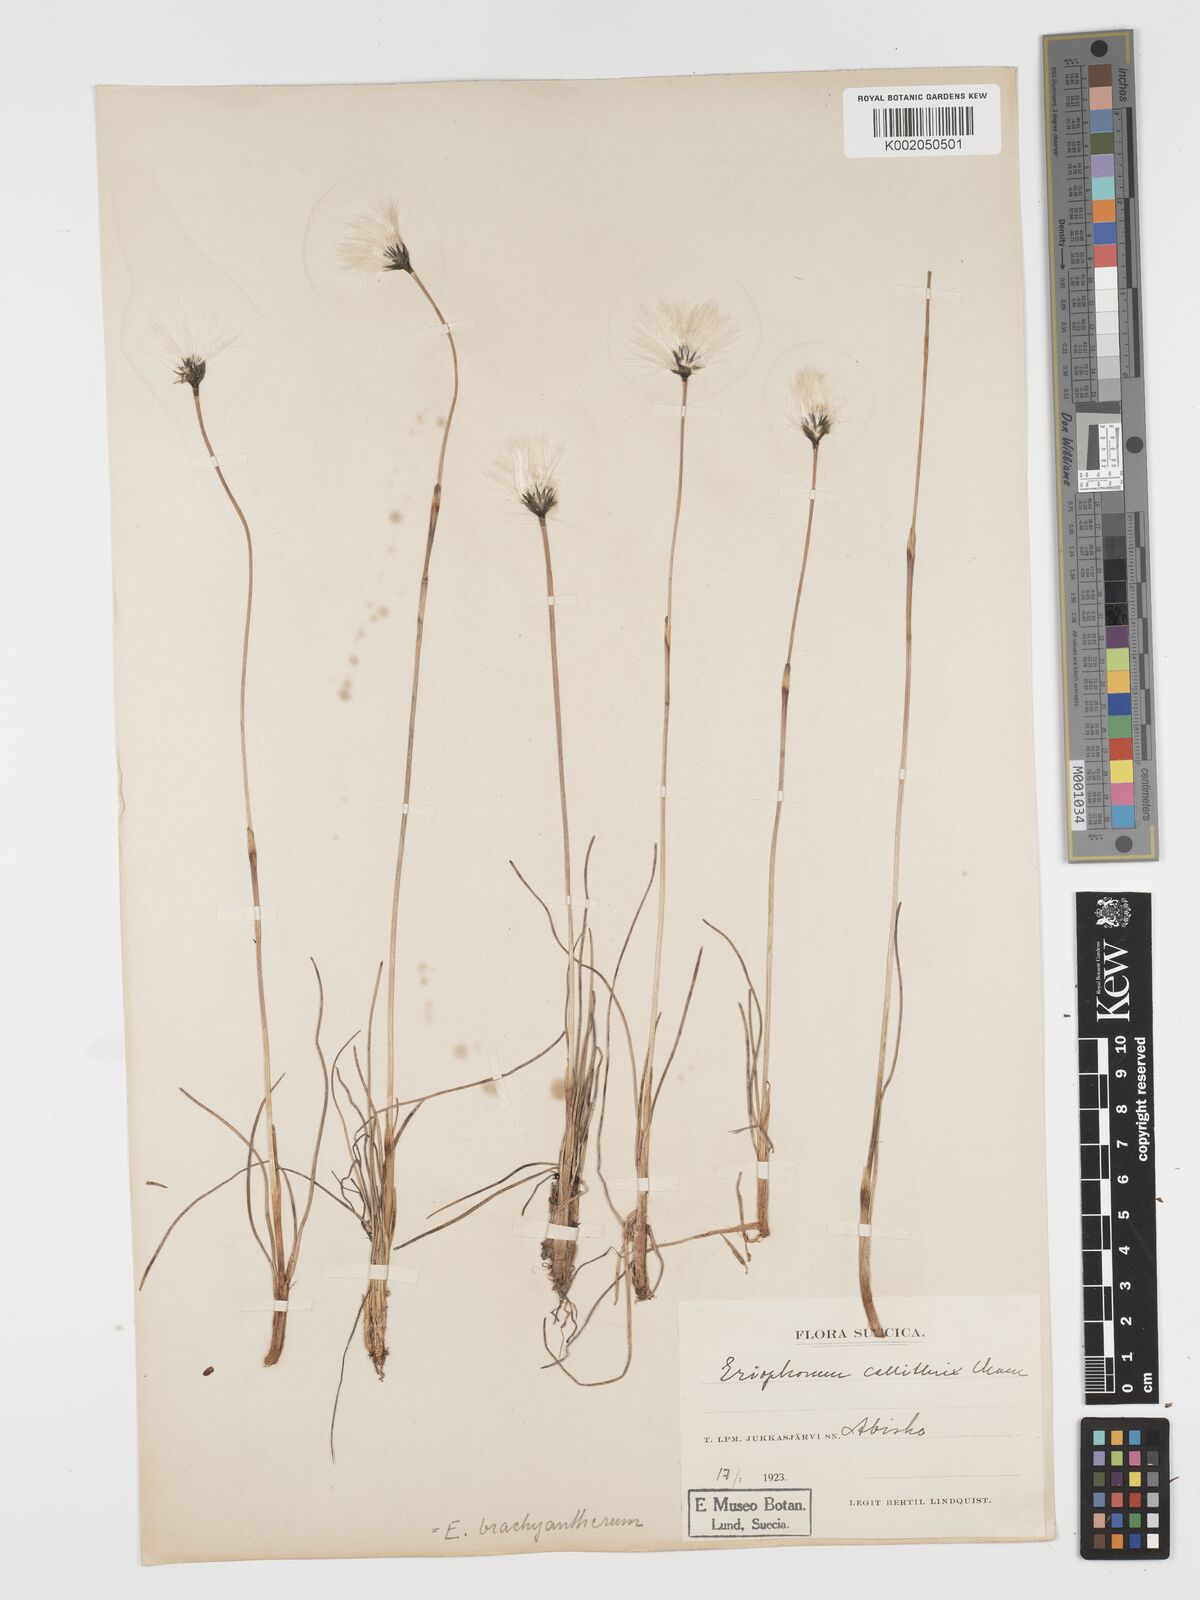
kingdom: Plantae
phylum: Tracheophyta
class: Liliopsida
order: Poales
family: Cyperaceae
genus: Eriophorum
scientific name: Eriophorum scheuchzeri
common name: Scheuchzer's cottongrass
